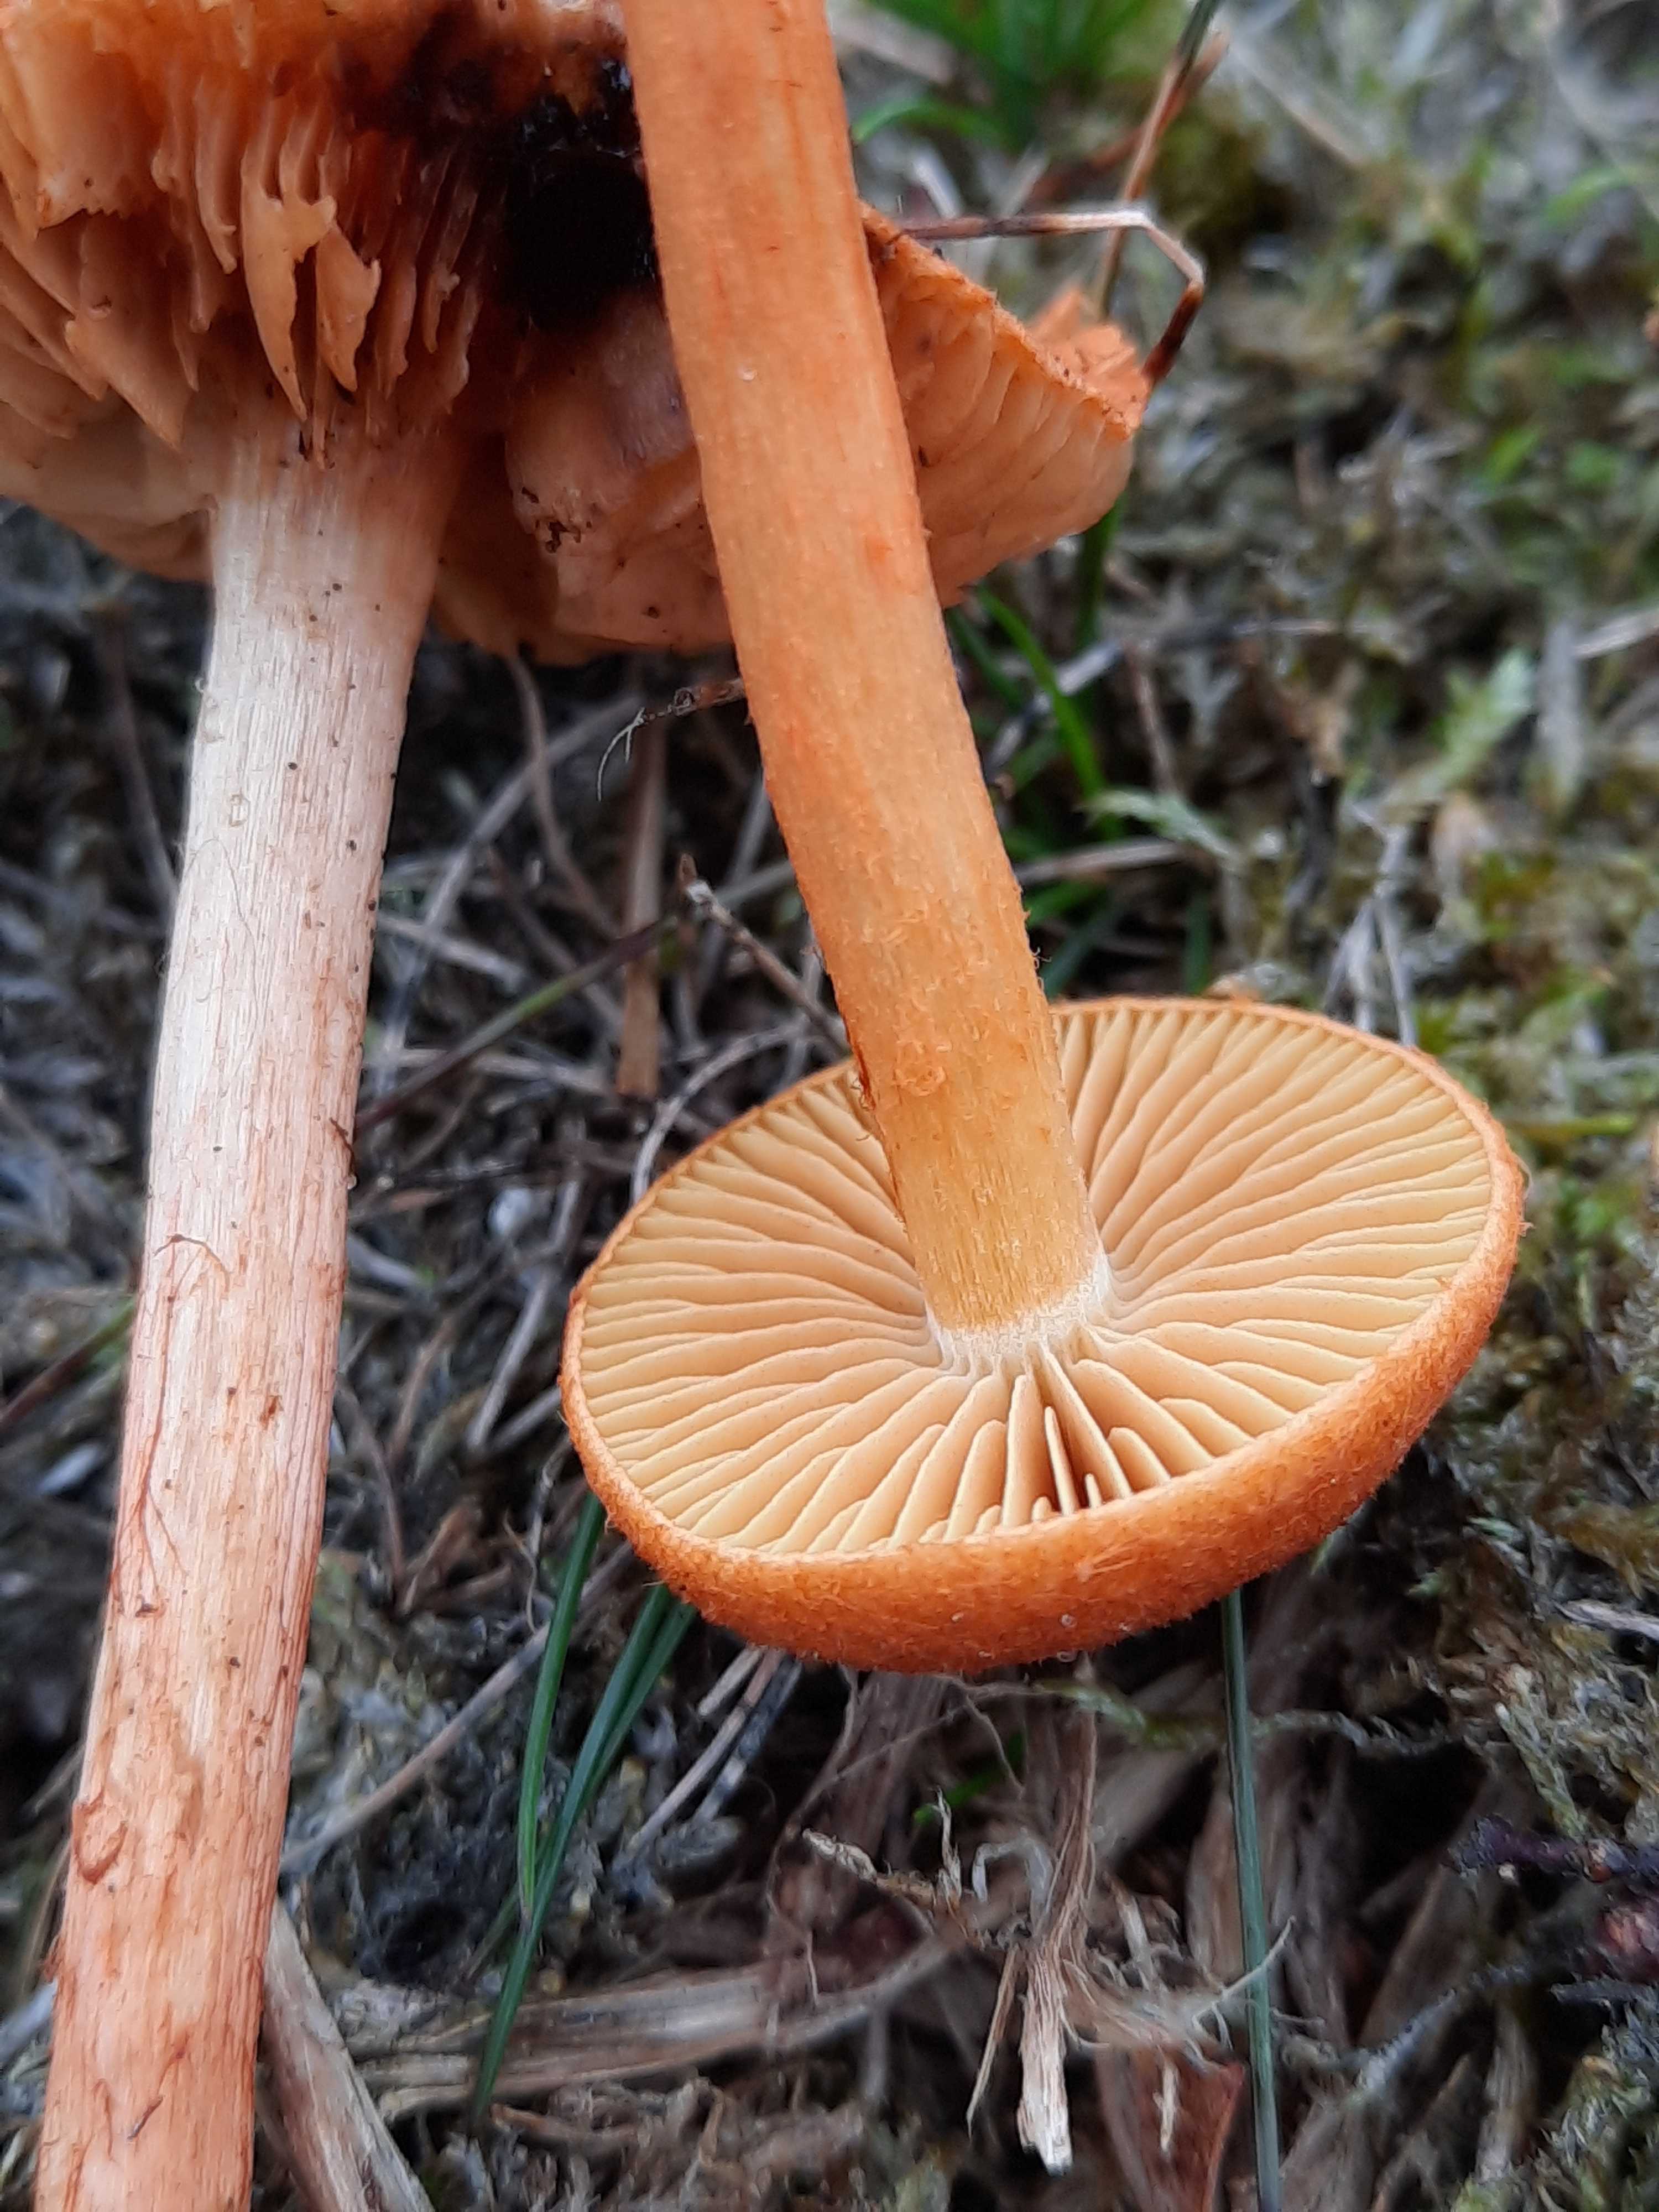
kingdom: Fungi
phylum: Basidiomycota
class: Agaricomycetes
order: Agaricales
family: Cortinariaceae
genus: Cortinarius
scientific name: Cortinarius uliginosus
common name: mose-slørhat
